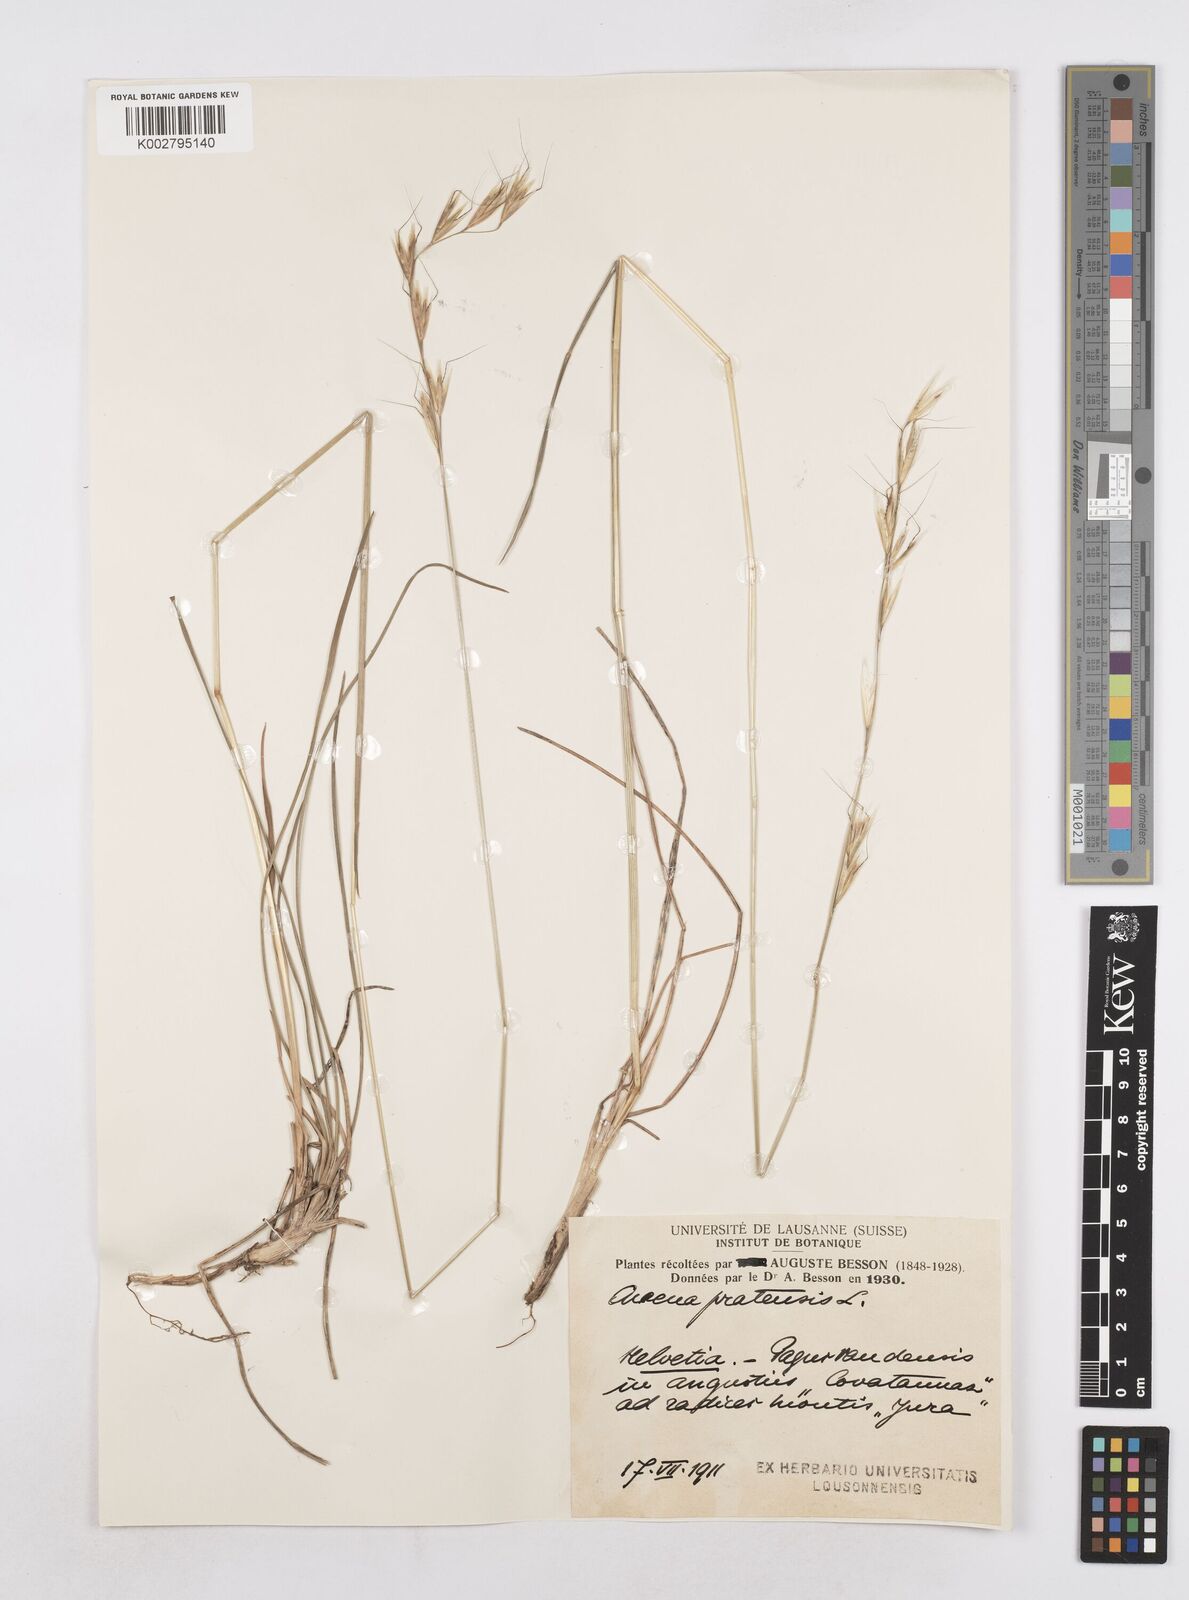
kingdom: Plantae
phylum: Tracheophyta
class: Liliopsida
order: Poales
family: Poaceae
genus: Helictochloa
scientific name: Helictochloa pratensis
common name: Meadow oat grass
